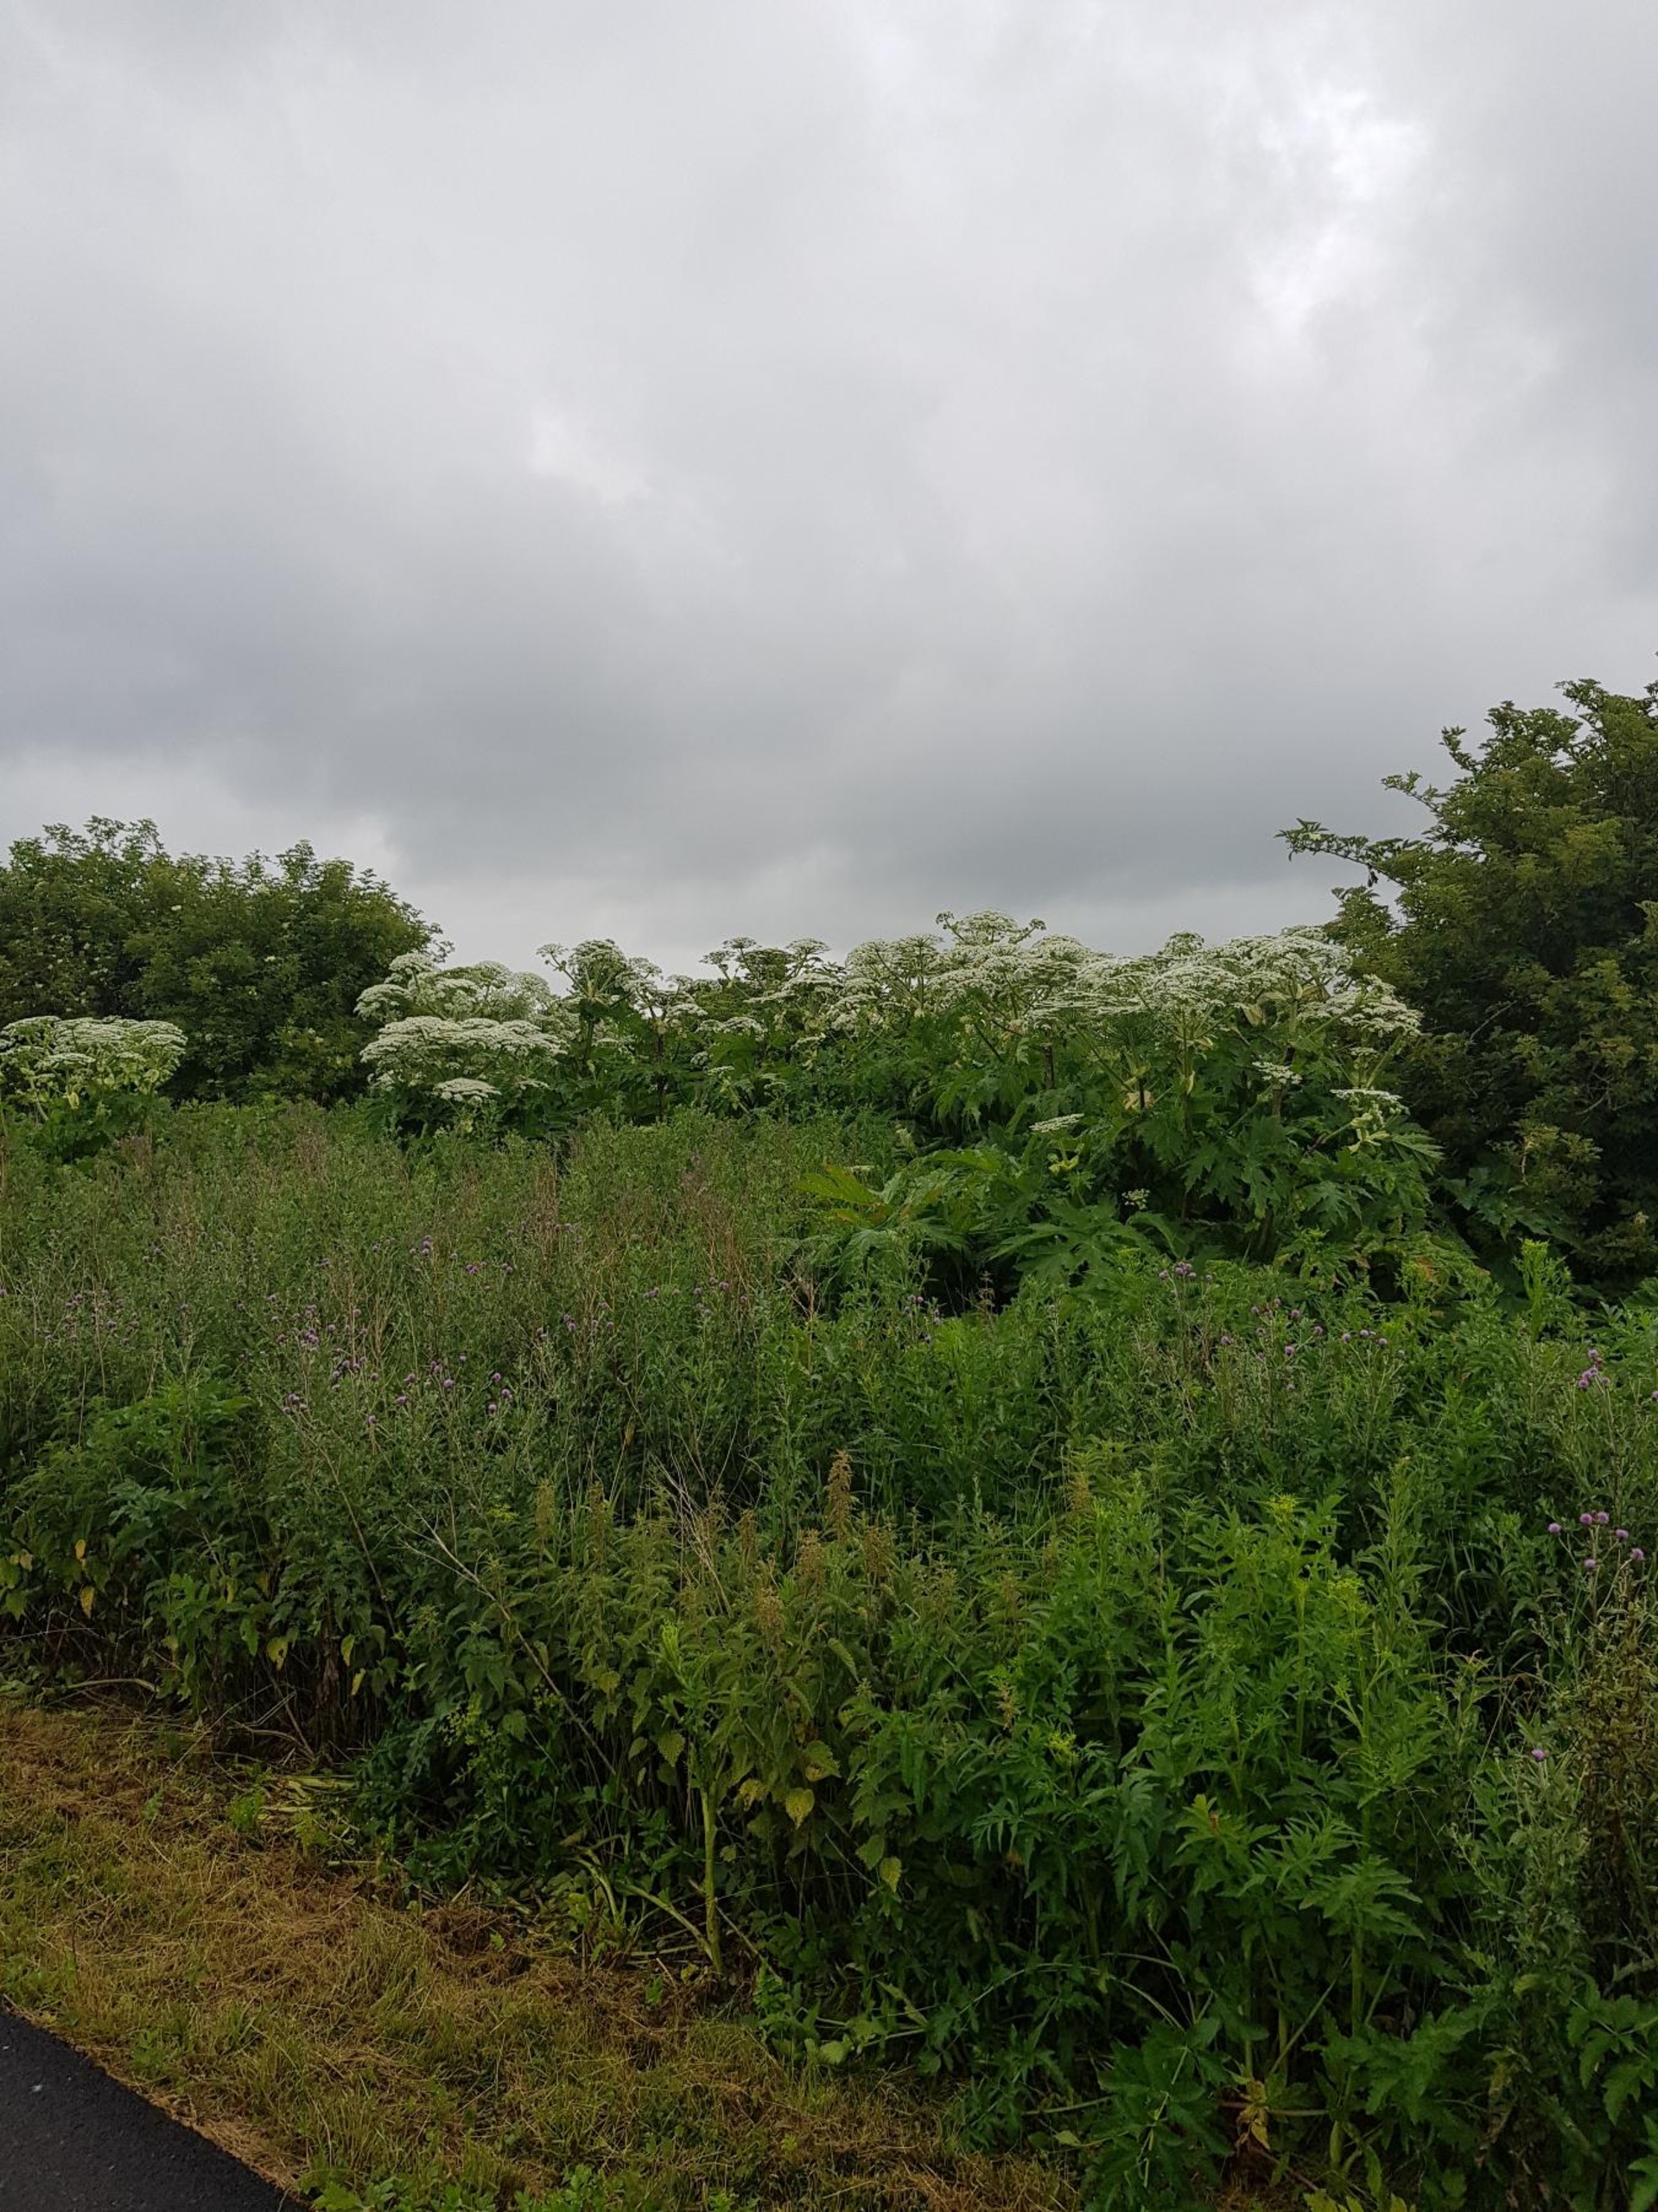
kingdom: Plantae
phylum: Tracheophyta
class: Magnoliopsida
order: Apiales
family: Apiaceae
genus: Heracleum
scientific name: Heracleum mantegazzianum
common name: Kæmpe-bjørneklo
